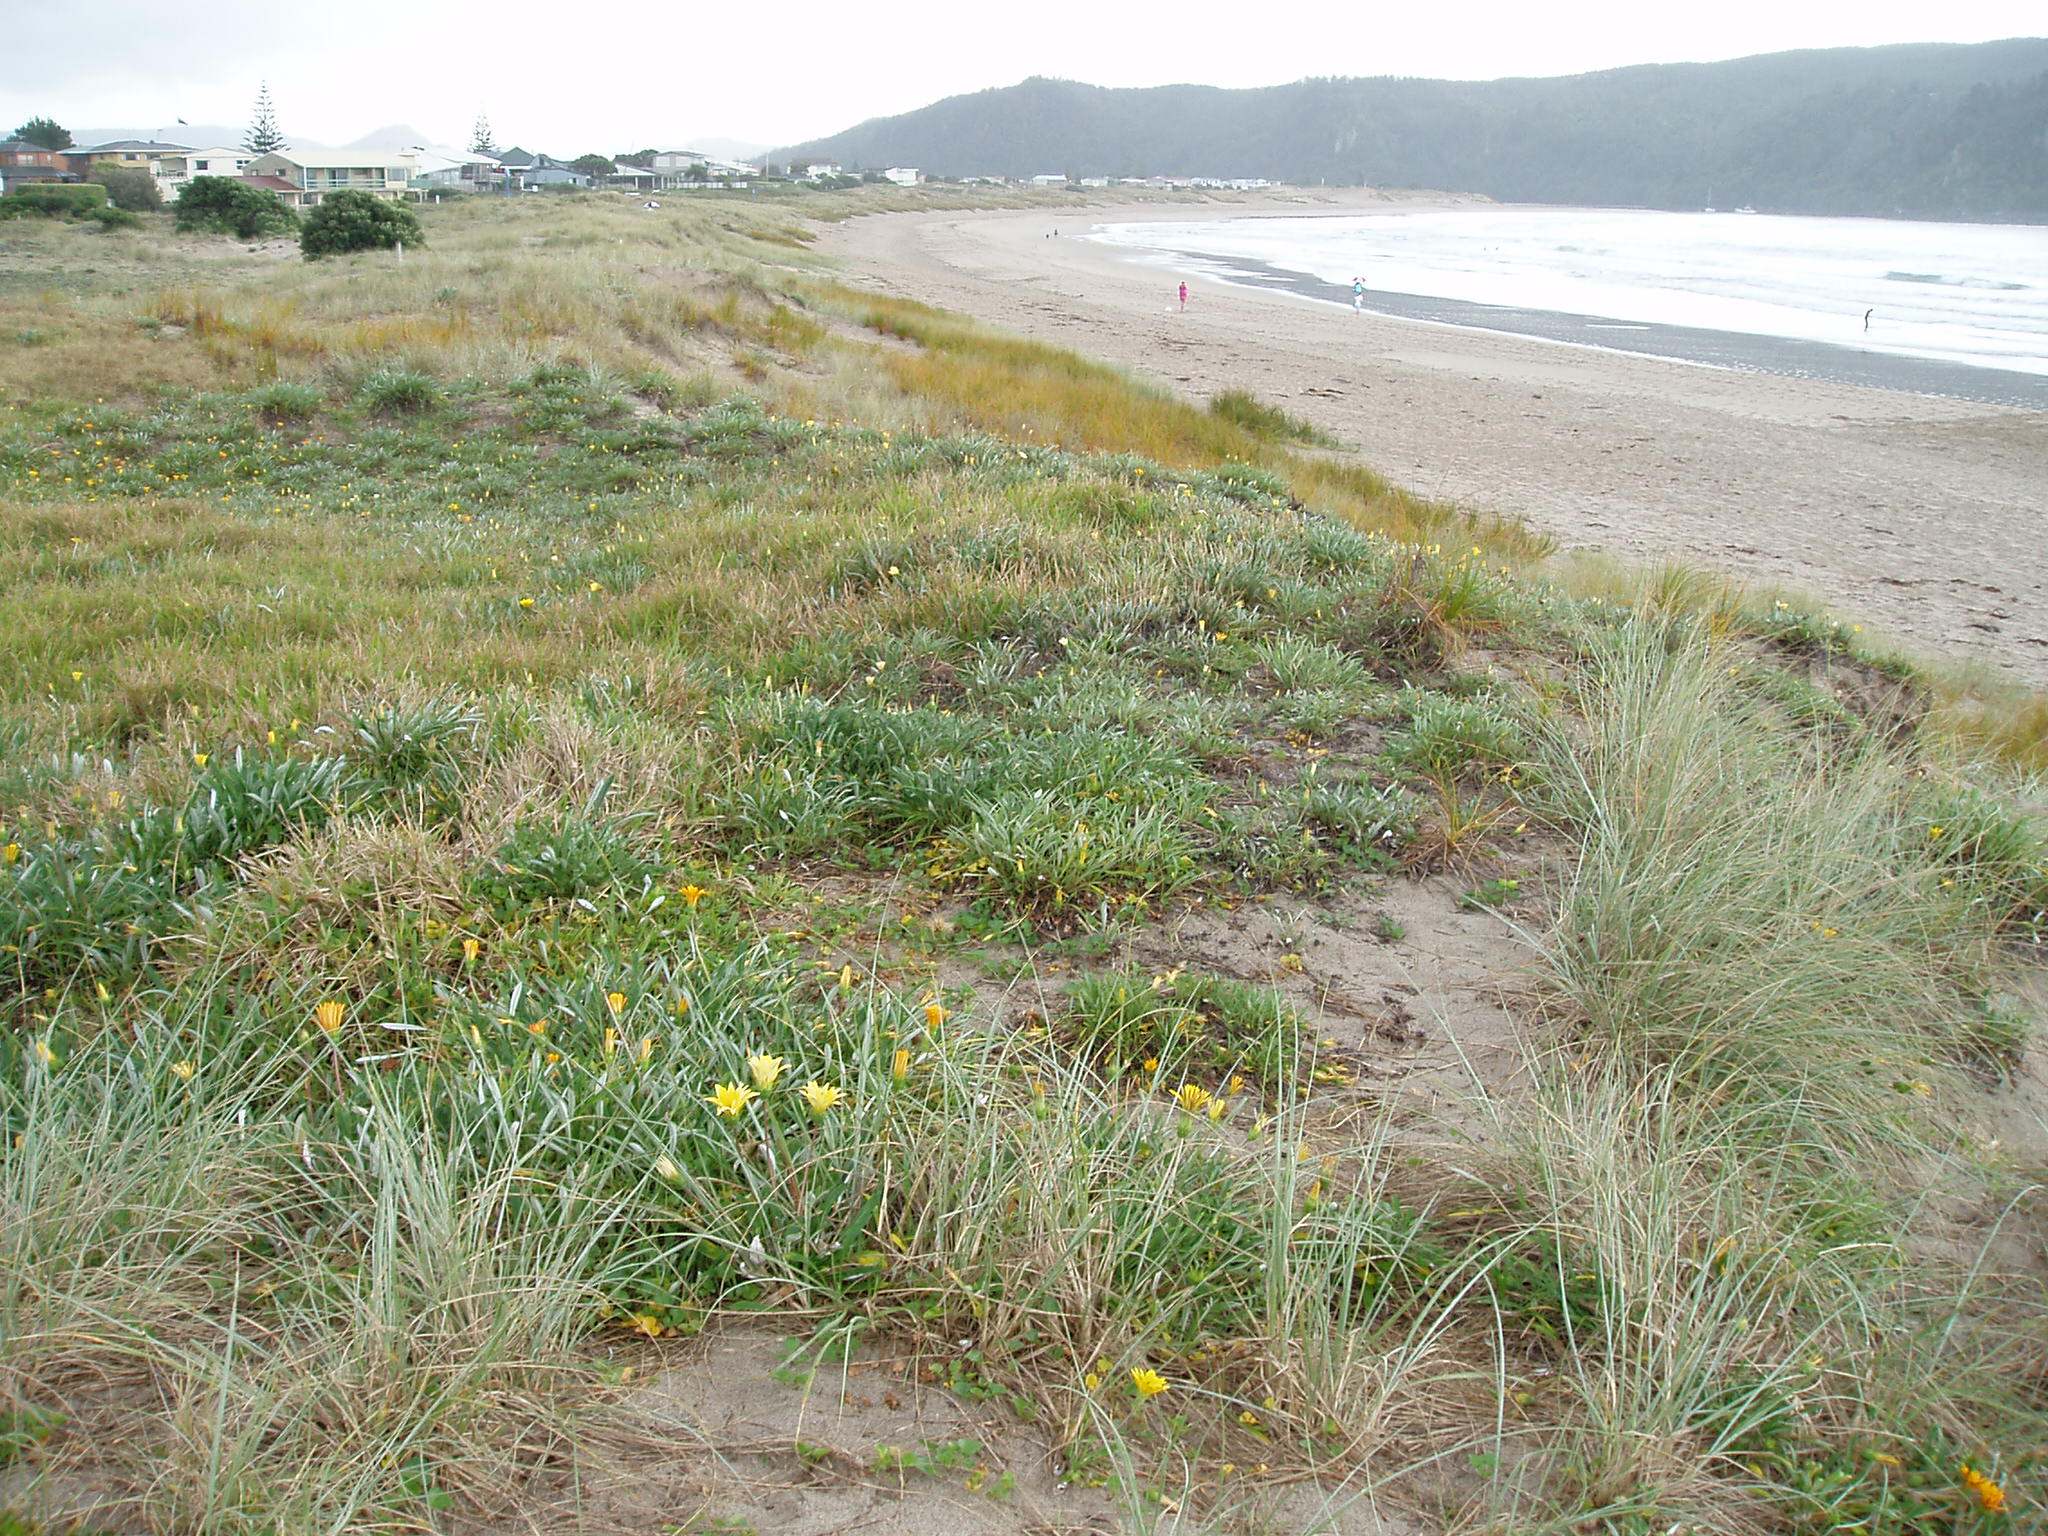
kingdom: Plantae
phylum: Tracheophyta
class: Magnoliopsida
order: Asterales
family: Asteraceae
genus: Gazania
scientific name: Gazania linearis
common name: Treasureflower
